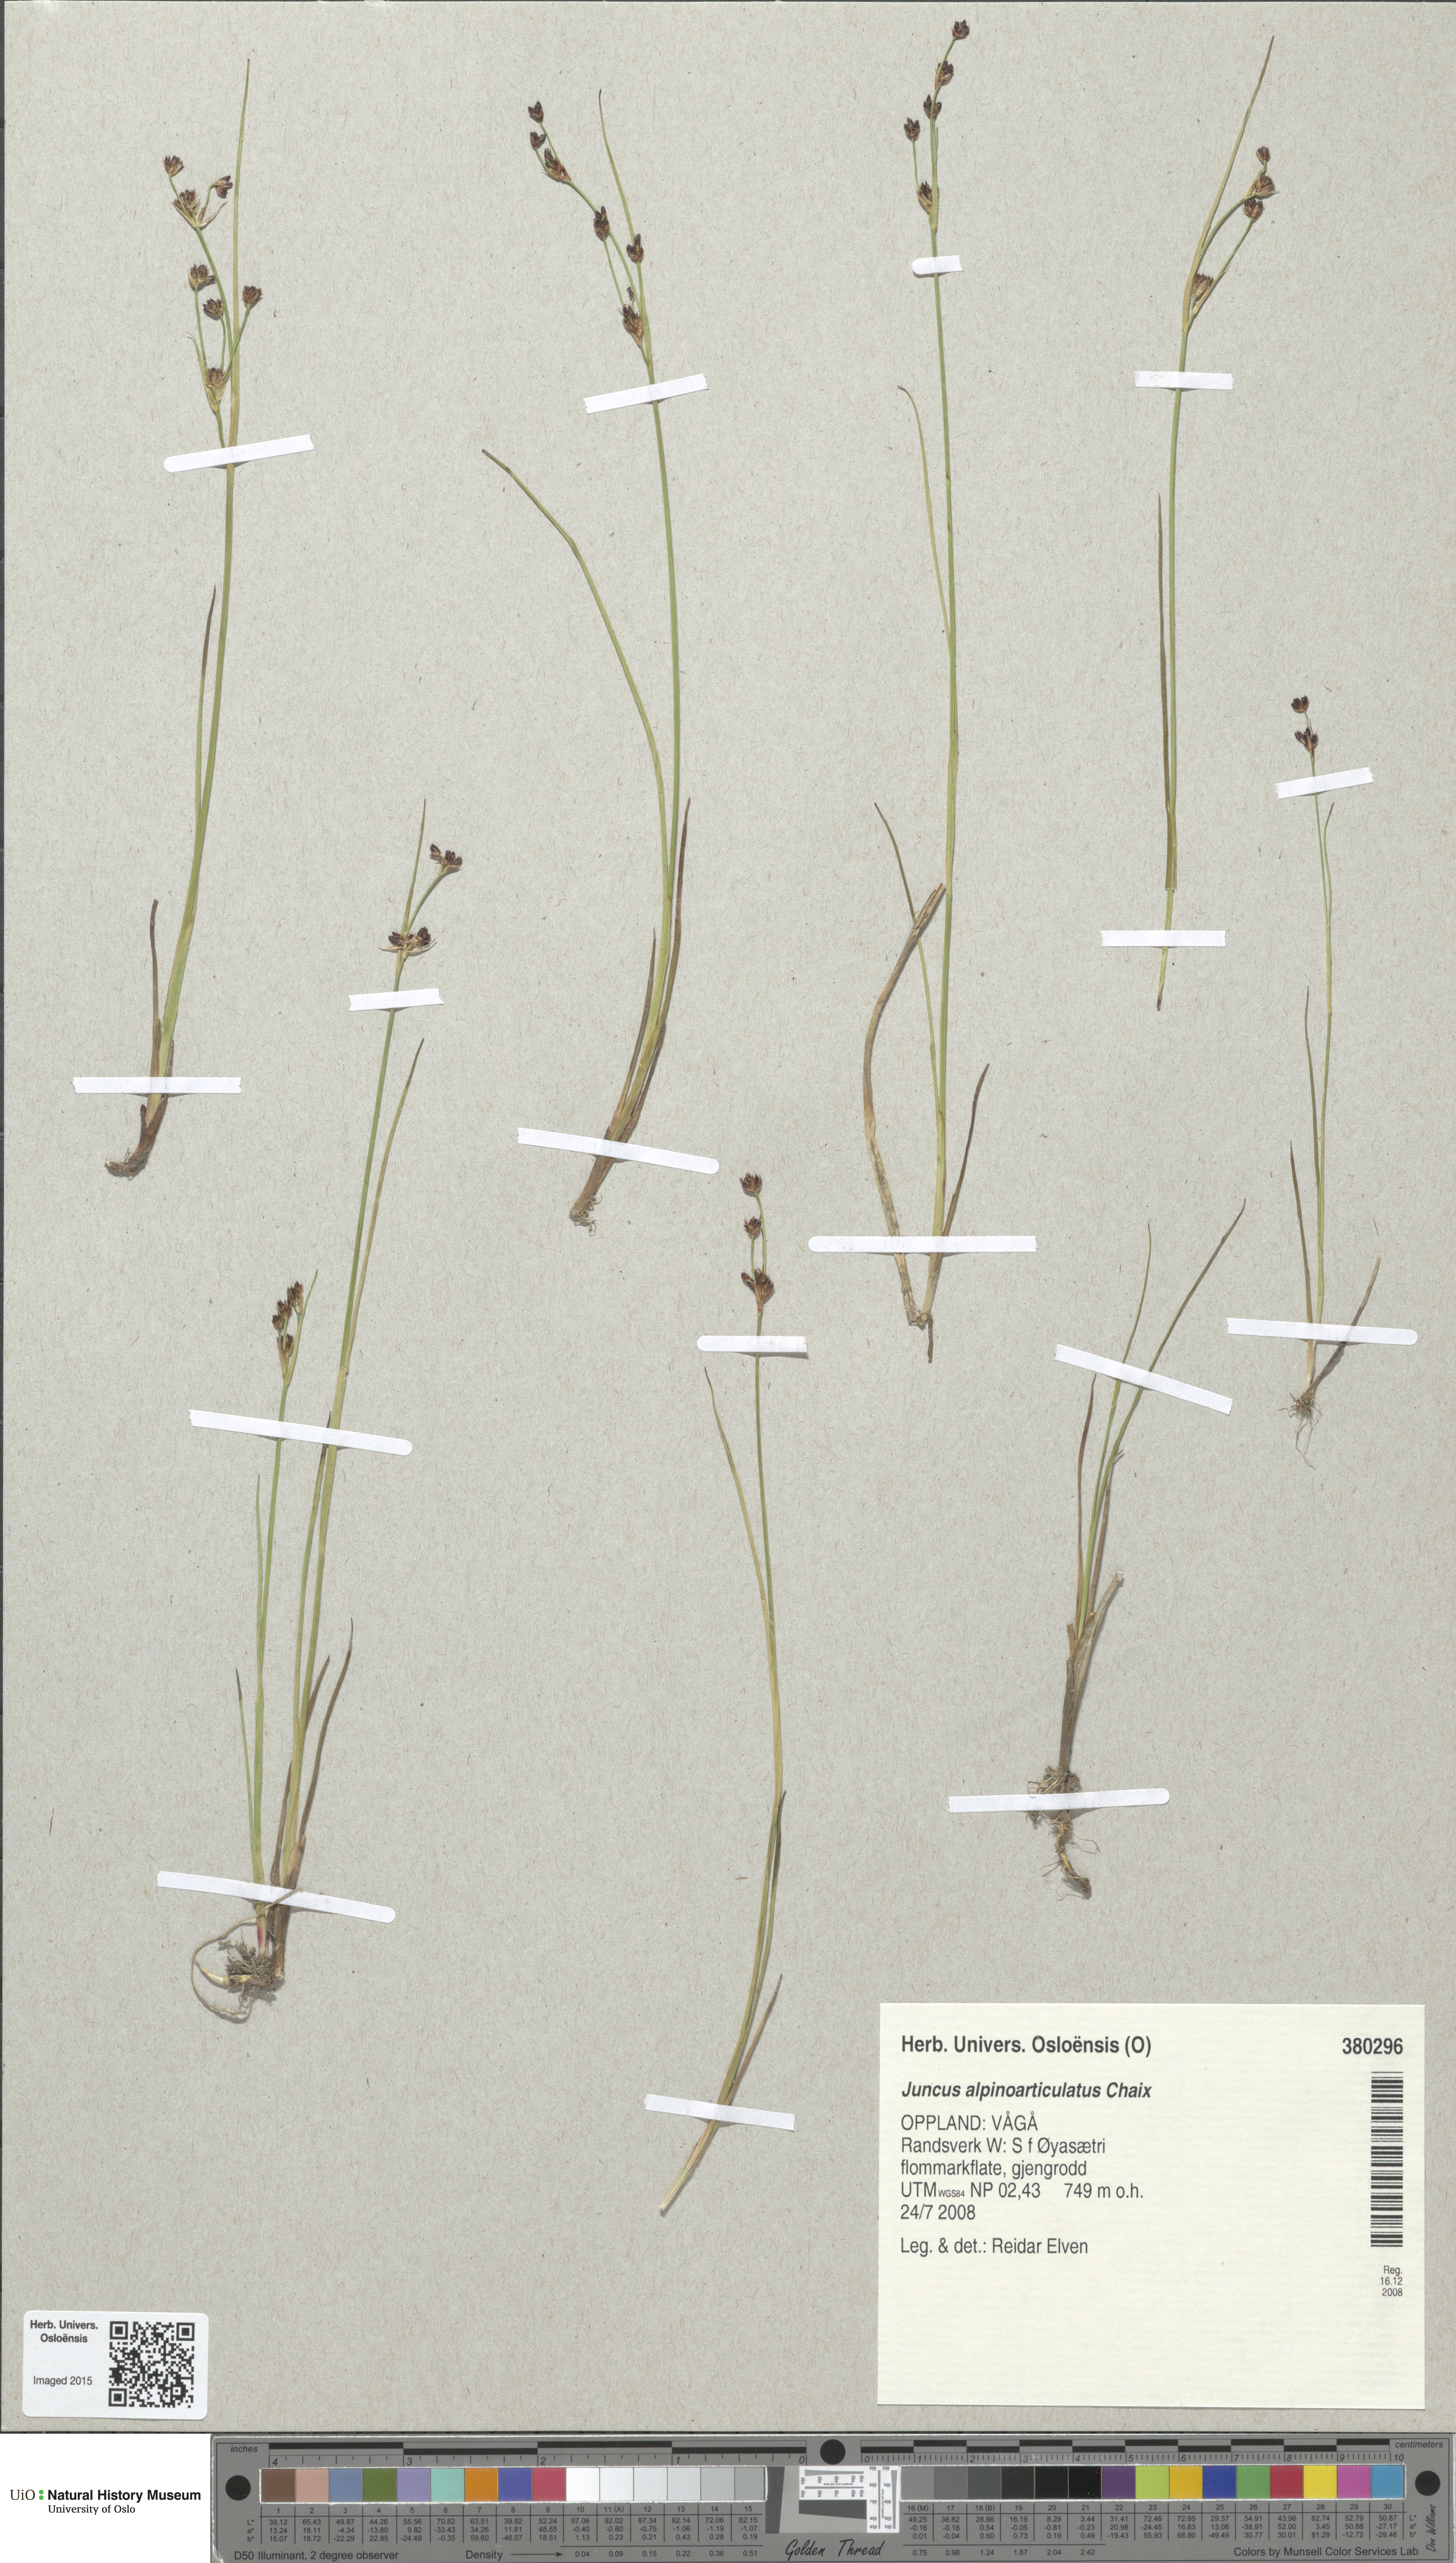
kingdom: Plantae
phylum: Tracheophyta
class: Liliopsida
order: Poales
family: Juncaceae
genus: Juncus
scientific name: Juncus alpinoarticulatus
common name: Alpine rush
